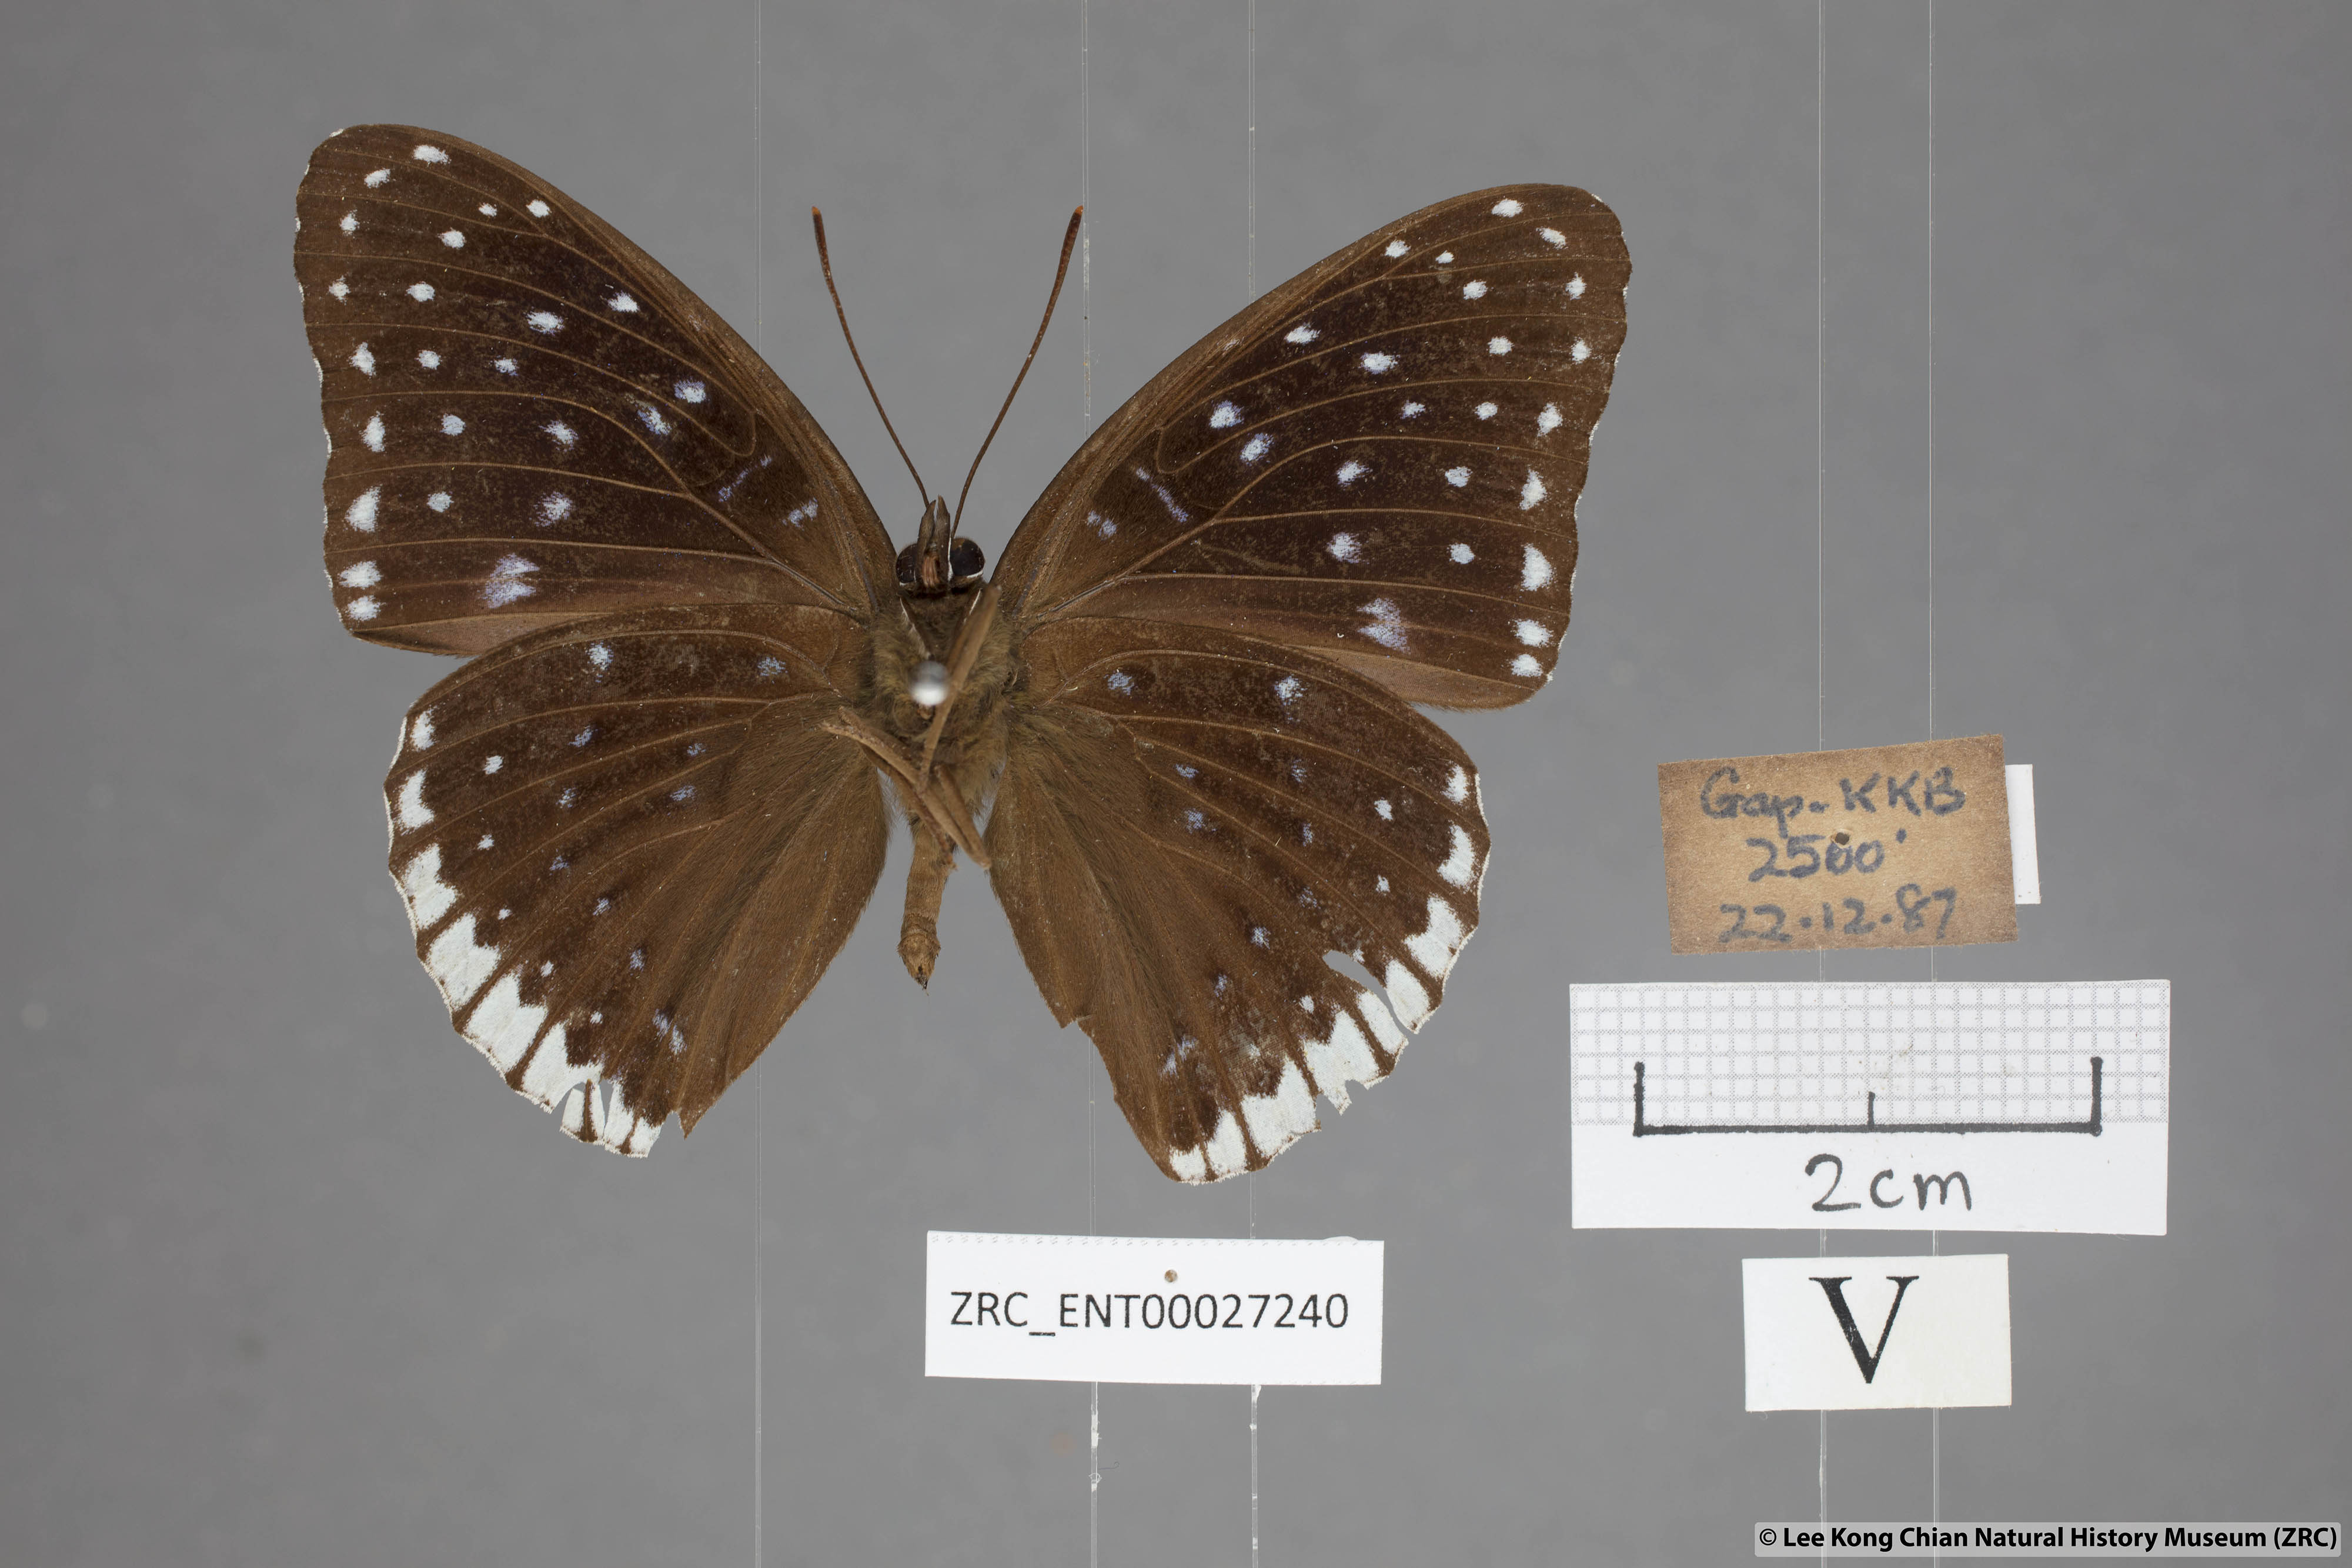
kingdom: Animalia
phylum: Arthropoda
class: Insecta
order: Lepidoptera
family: Nymphalidae
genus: Stibochiona
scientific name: Stibochiona nicea
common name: Popinjay
